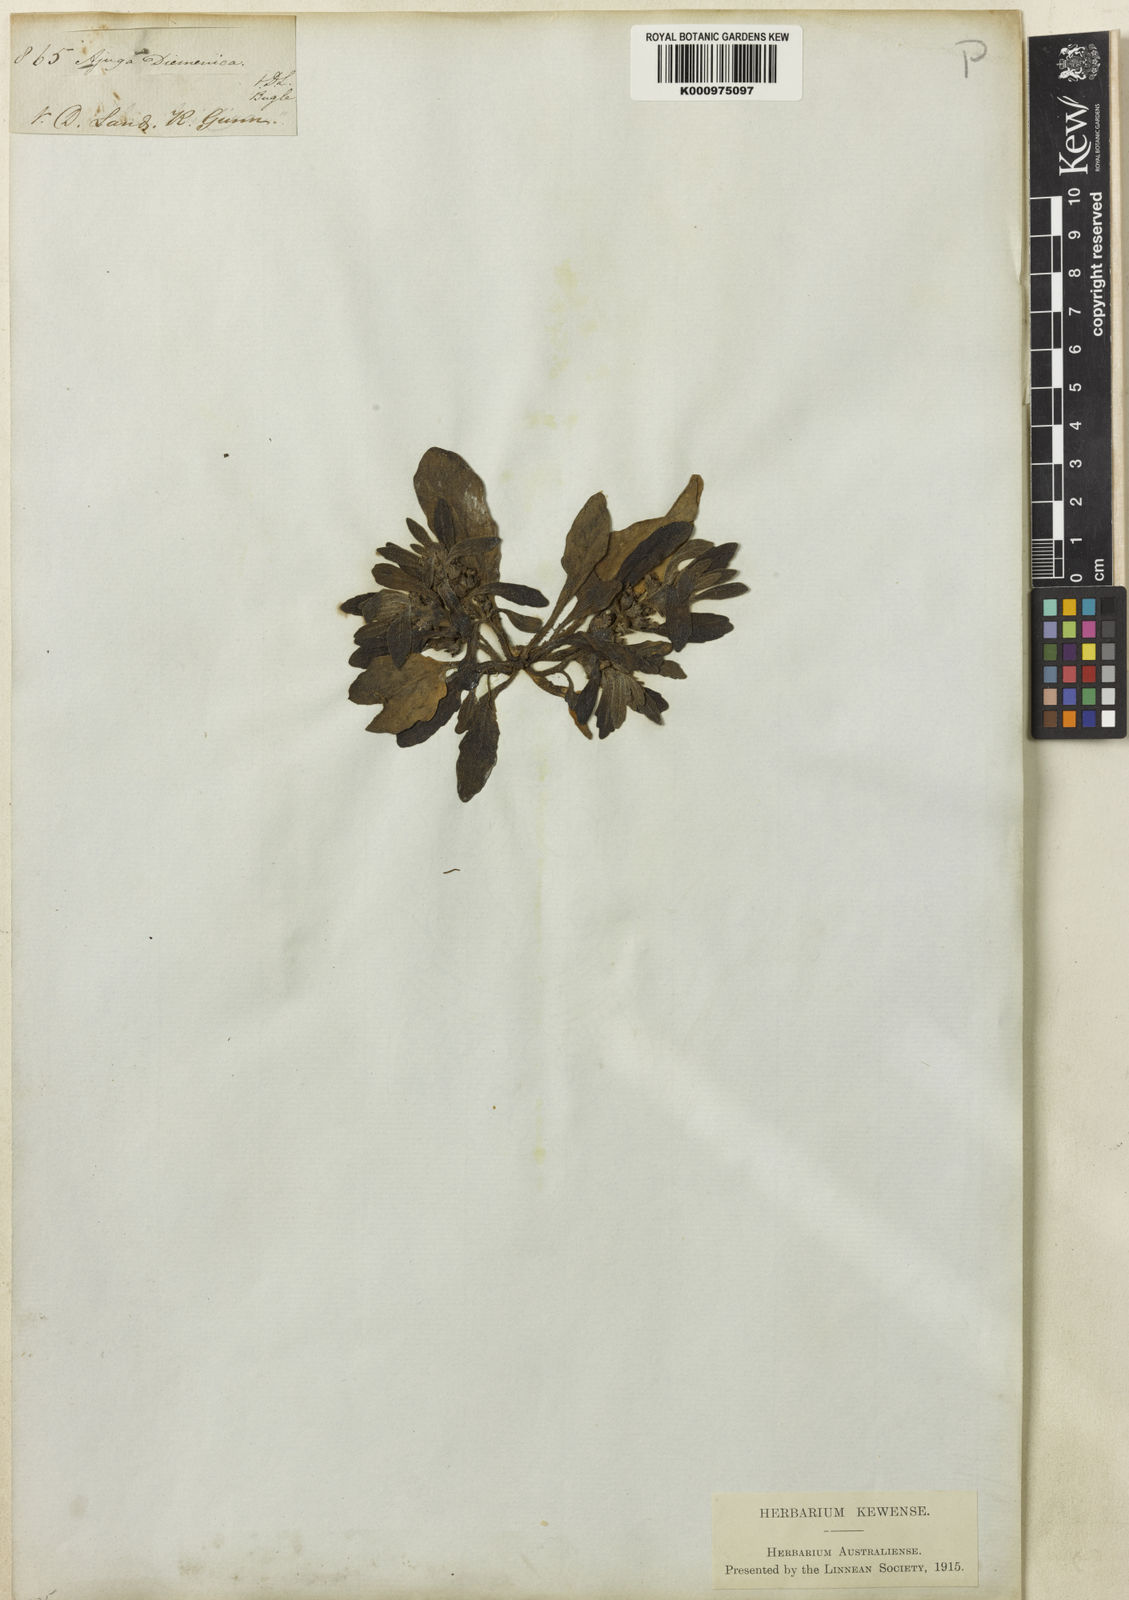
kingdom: Plantae
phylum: Tracheophyta
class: Magnoliopsida
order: Lamiales
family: Lamiaceae
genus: Ajuga
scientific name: Ajuga australis
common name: Australian bugle
